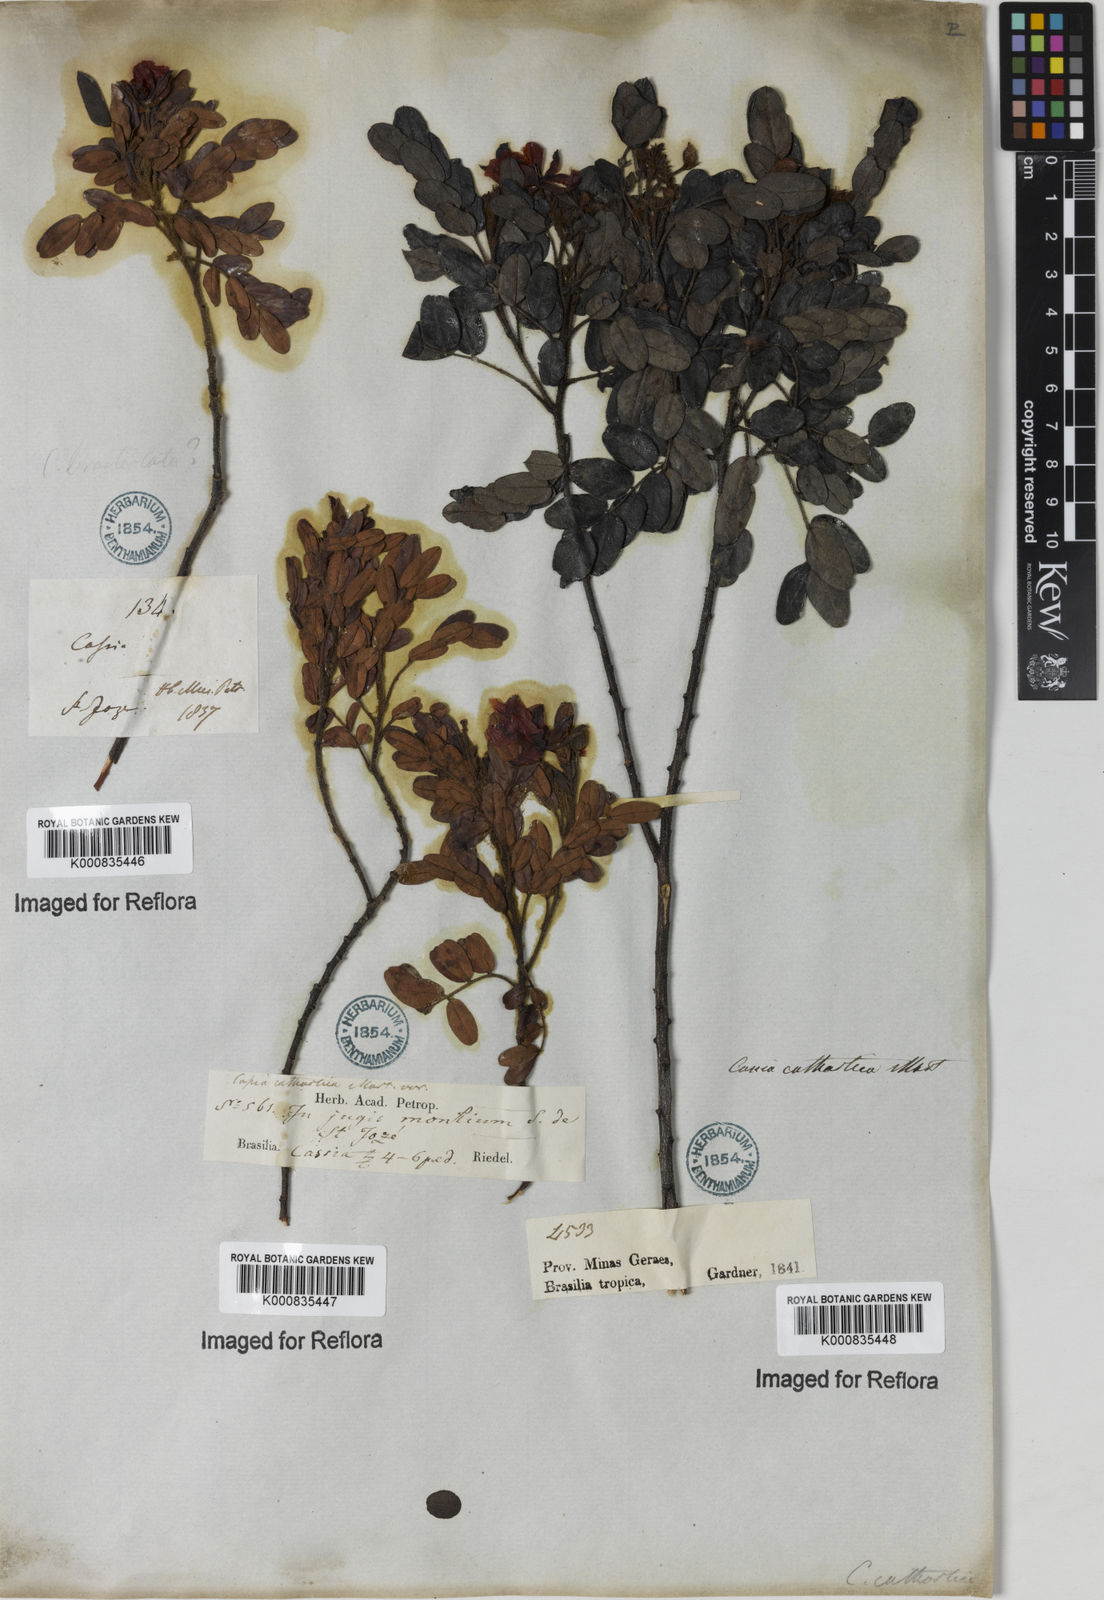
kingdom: Plantae
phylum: Tracheophyta
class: Magnoliopsida
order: Fabales
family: Fabaceae
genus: Chamaecrista
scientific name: Chamaecrista cathartica
